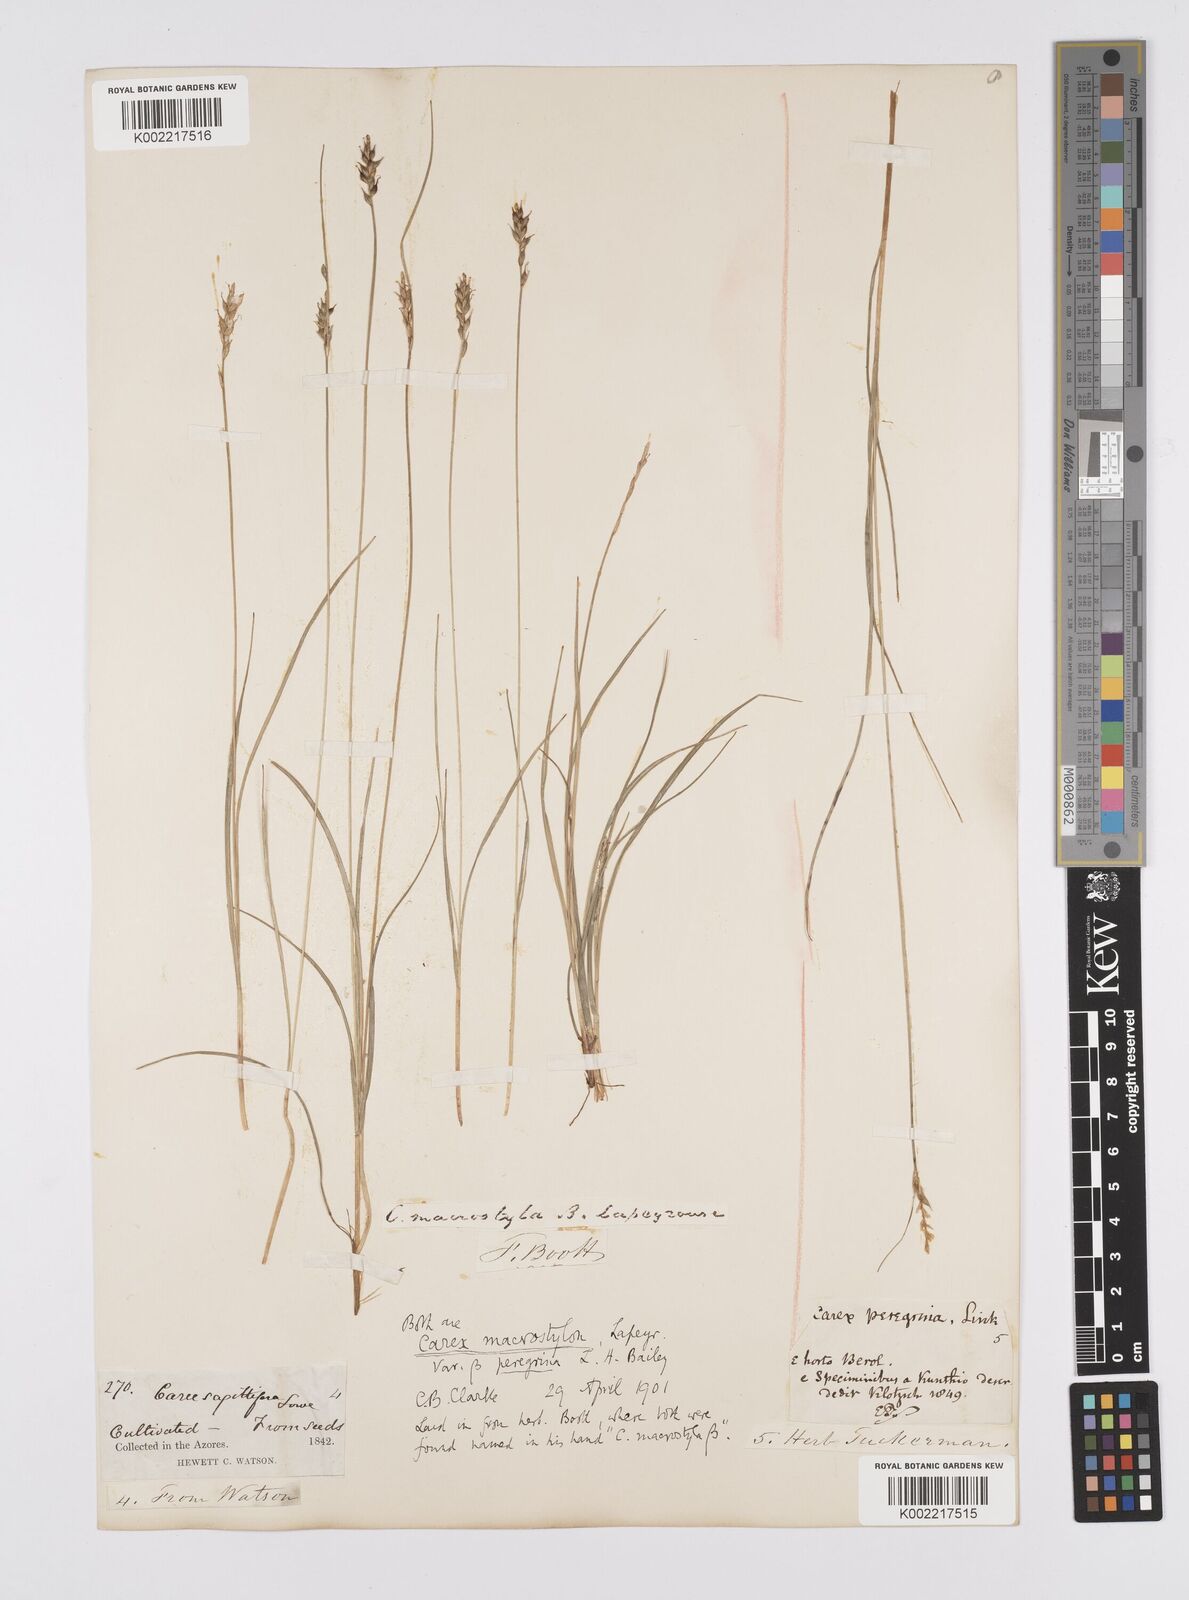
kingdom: Plantae
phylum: Tracheophyta
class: Liliopsida
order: Poales
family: Cyperaceae
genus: Carex
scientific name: Carex peregrina
